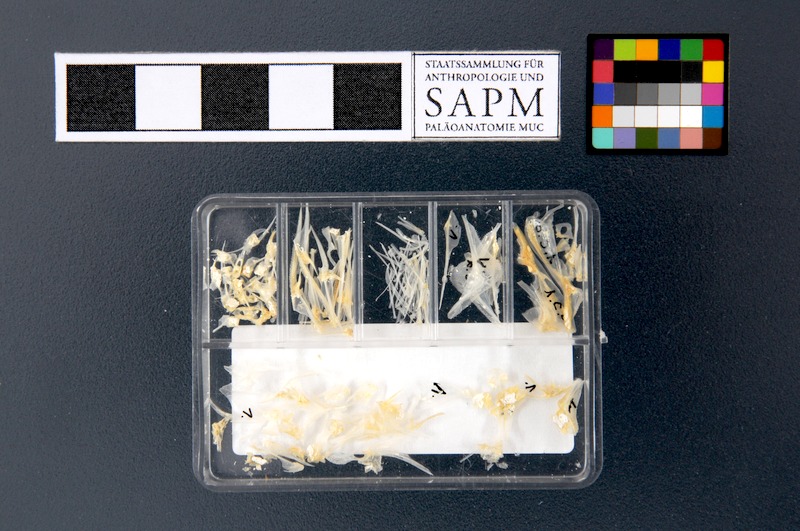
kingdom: Animalia
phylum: Chordata
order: Perciformes
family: Caproidae
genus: Capros
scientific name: Capros aper
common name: Boarfish
